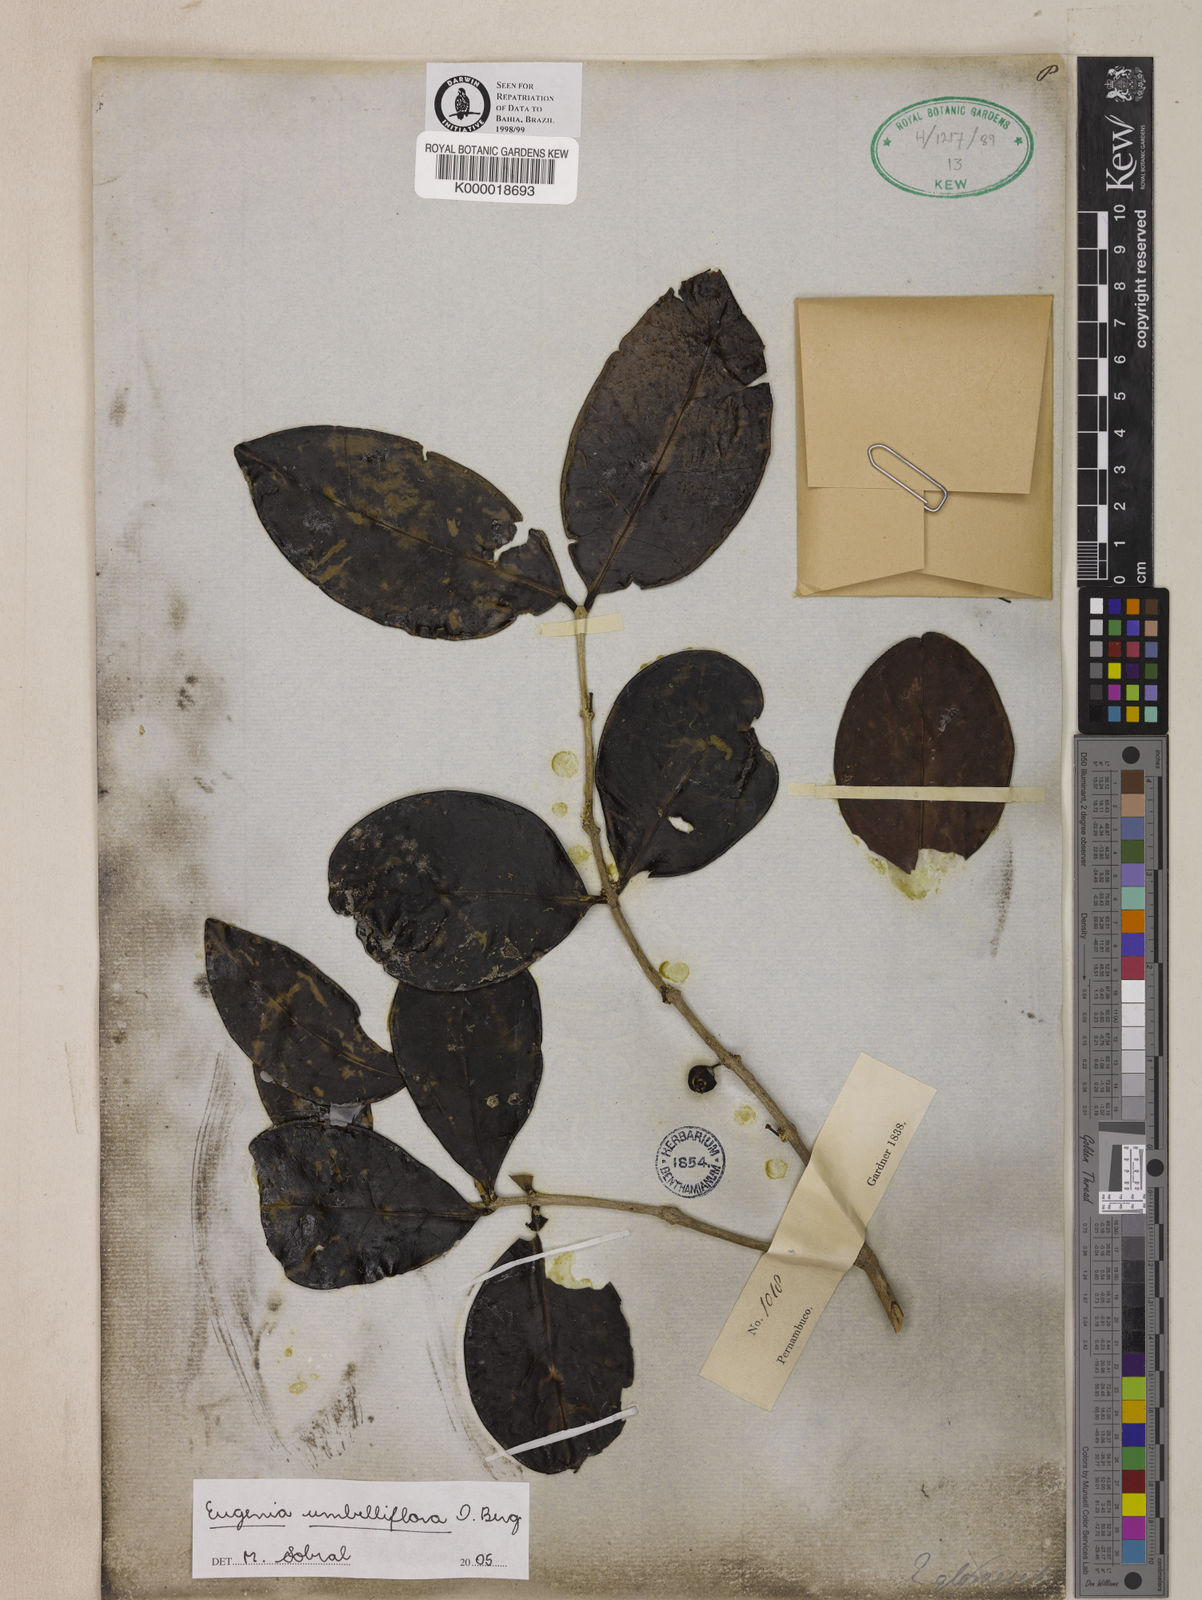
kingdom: Plantae
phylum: Tracheophyta
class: Magnoliopsida
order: Myrtales
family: Myrtaceae
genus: Eugenia
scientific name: Eugenia umbelliflora
